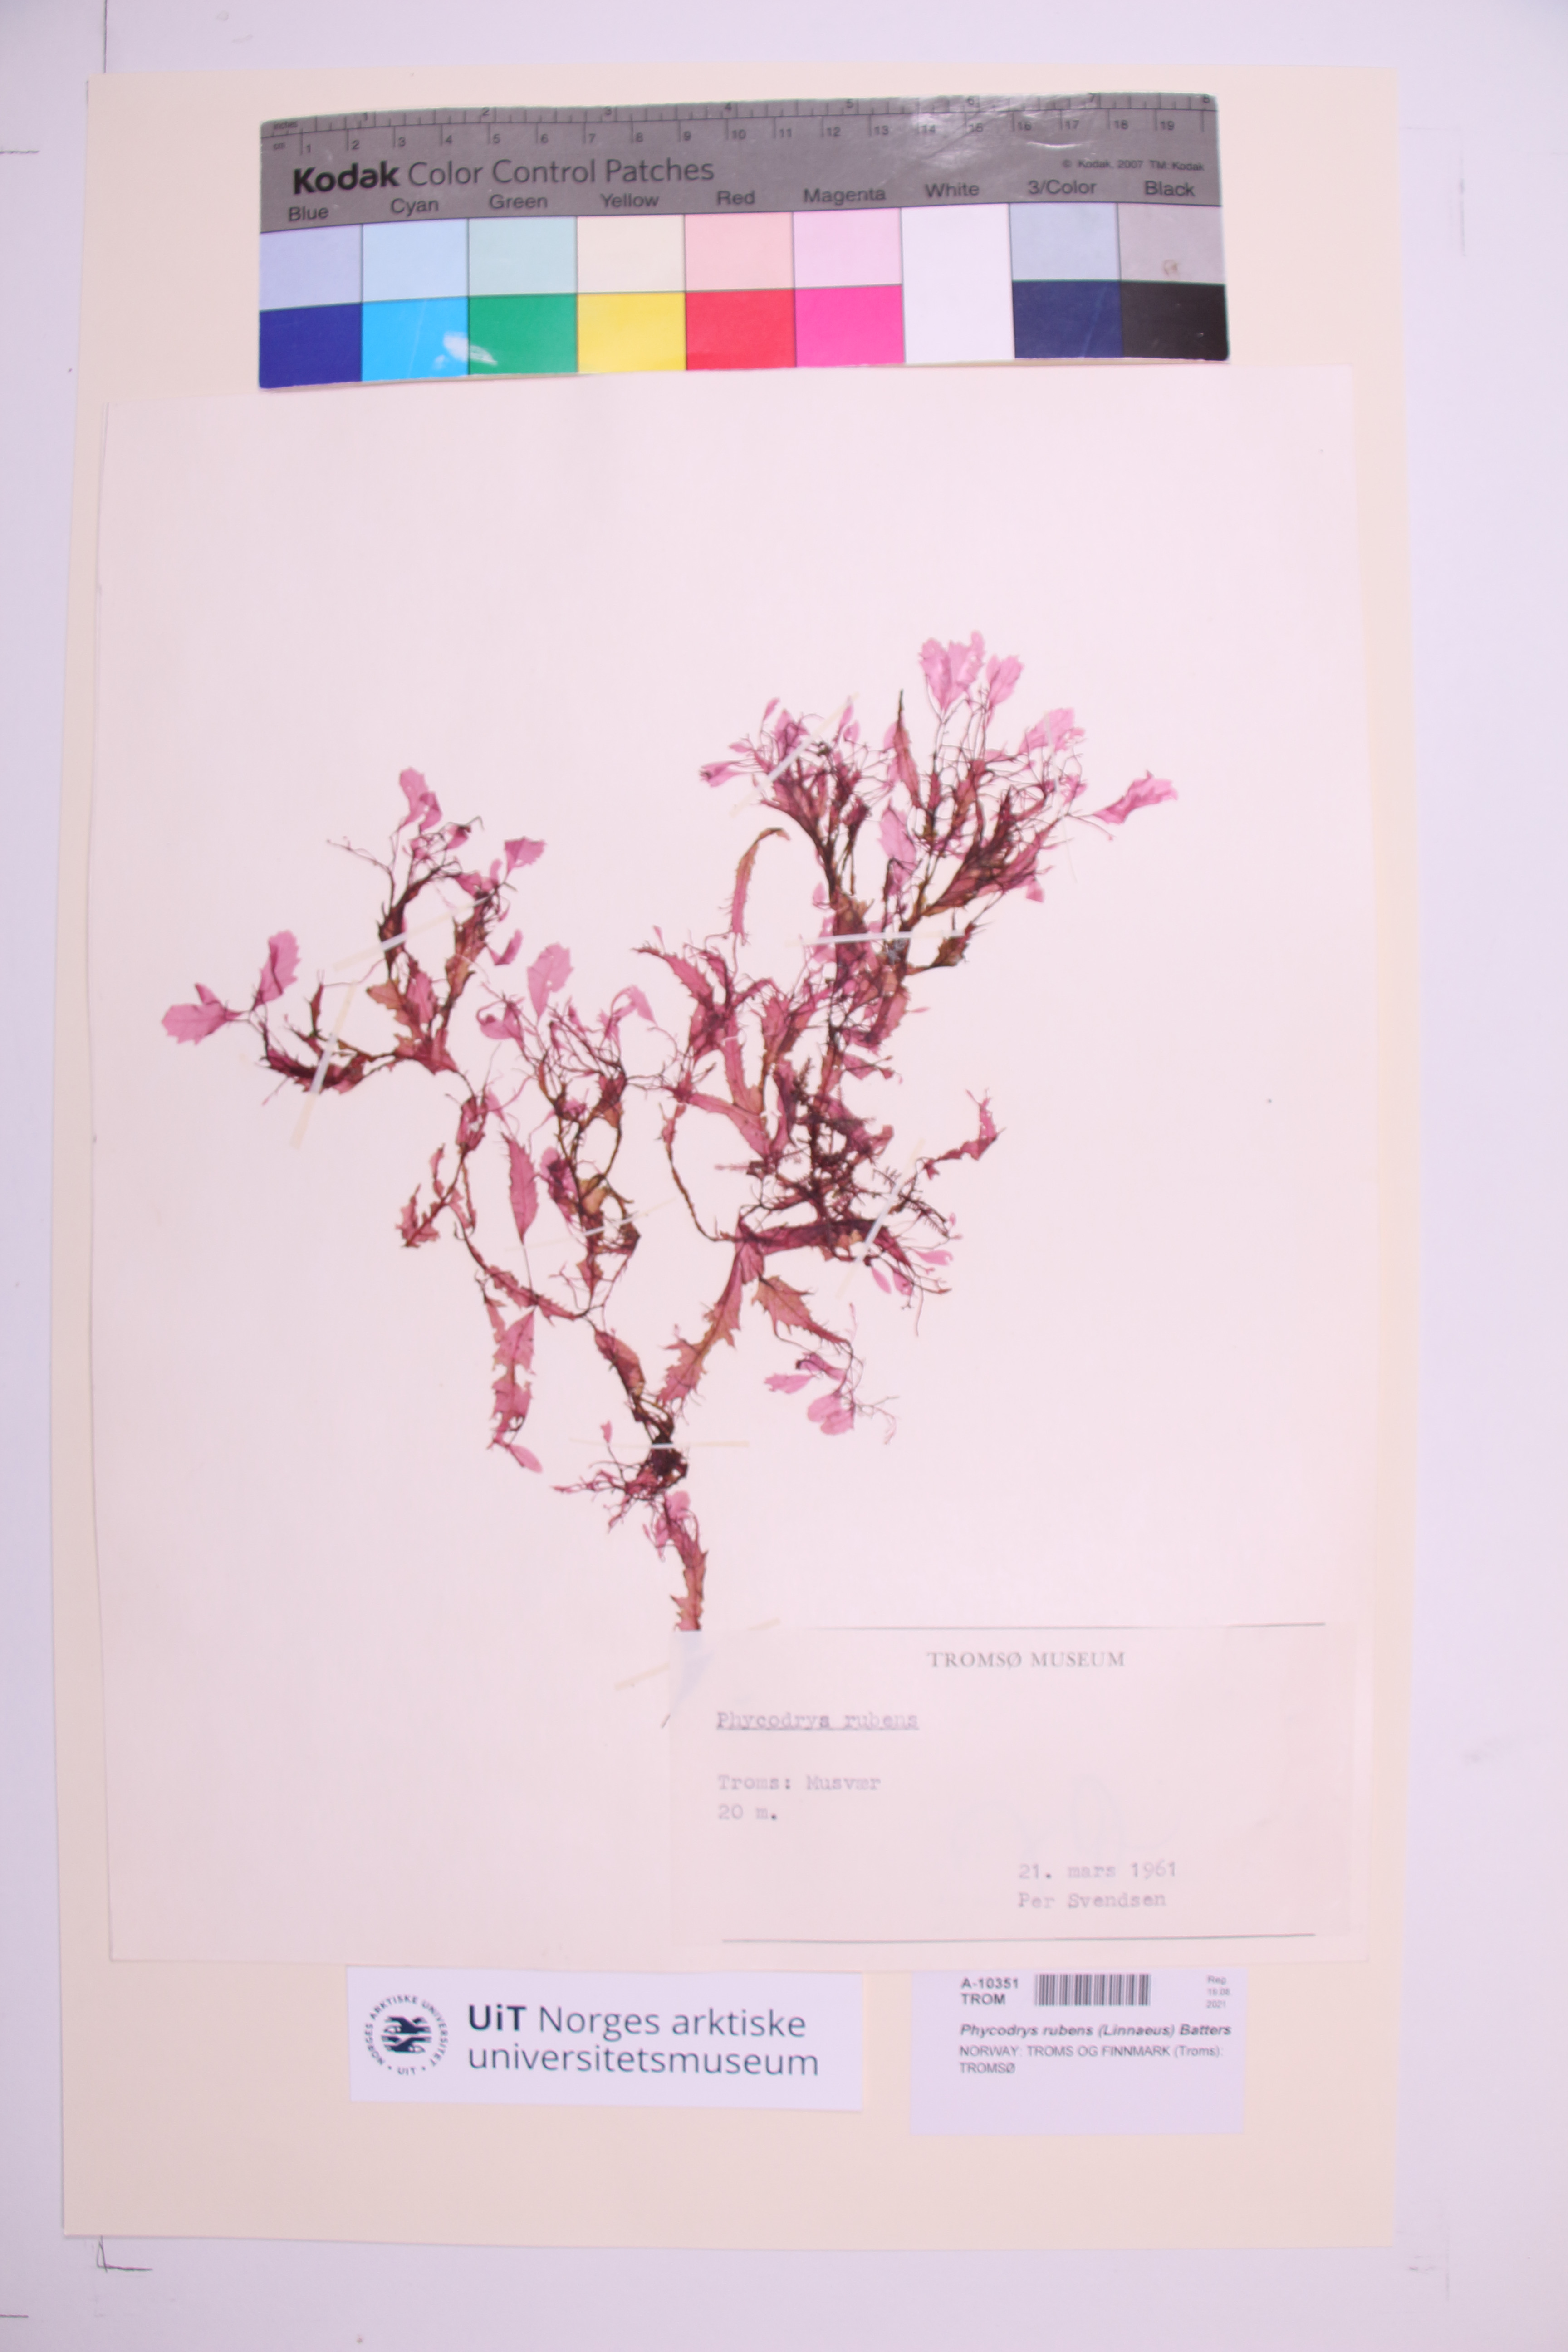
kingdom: Plantae
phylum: Rhodophyta
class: Florideophyceae
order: Ceramiales
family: Delesseriaceae
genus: Phycodrys
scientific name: Phycodrys rubens
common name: Sea oak
